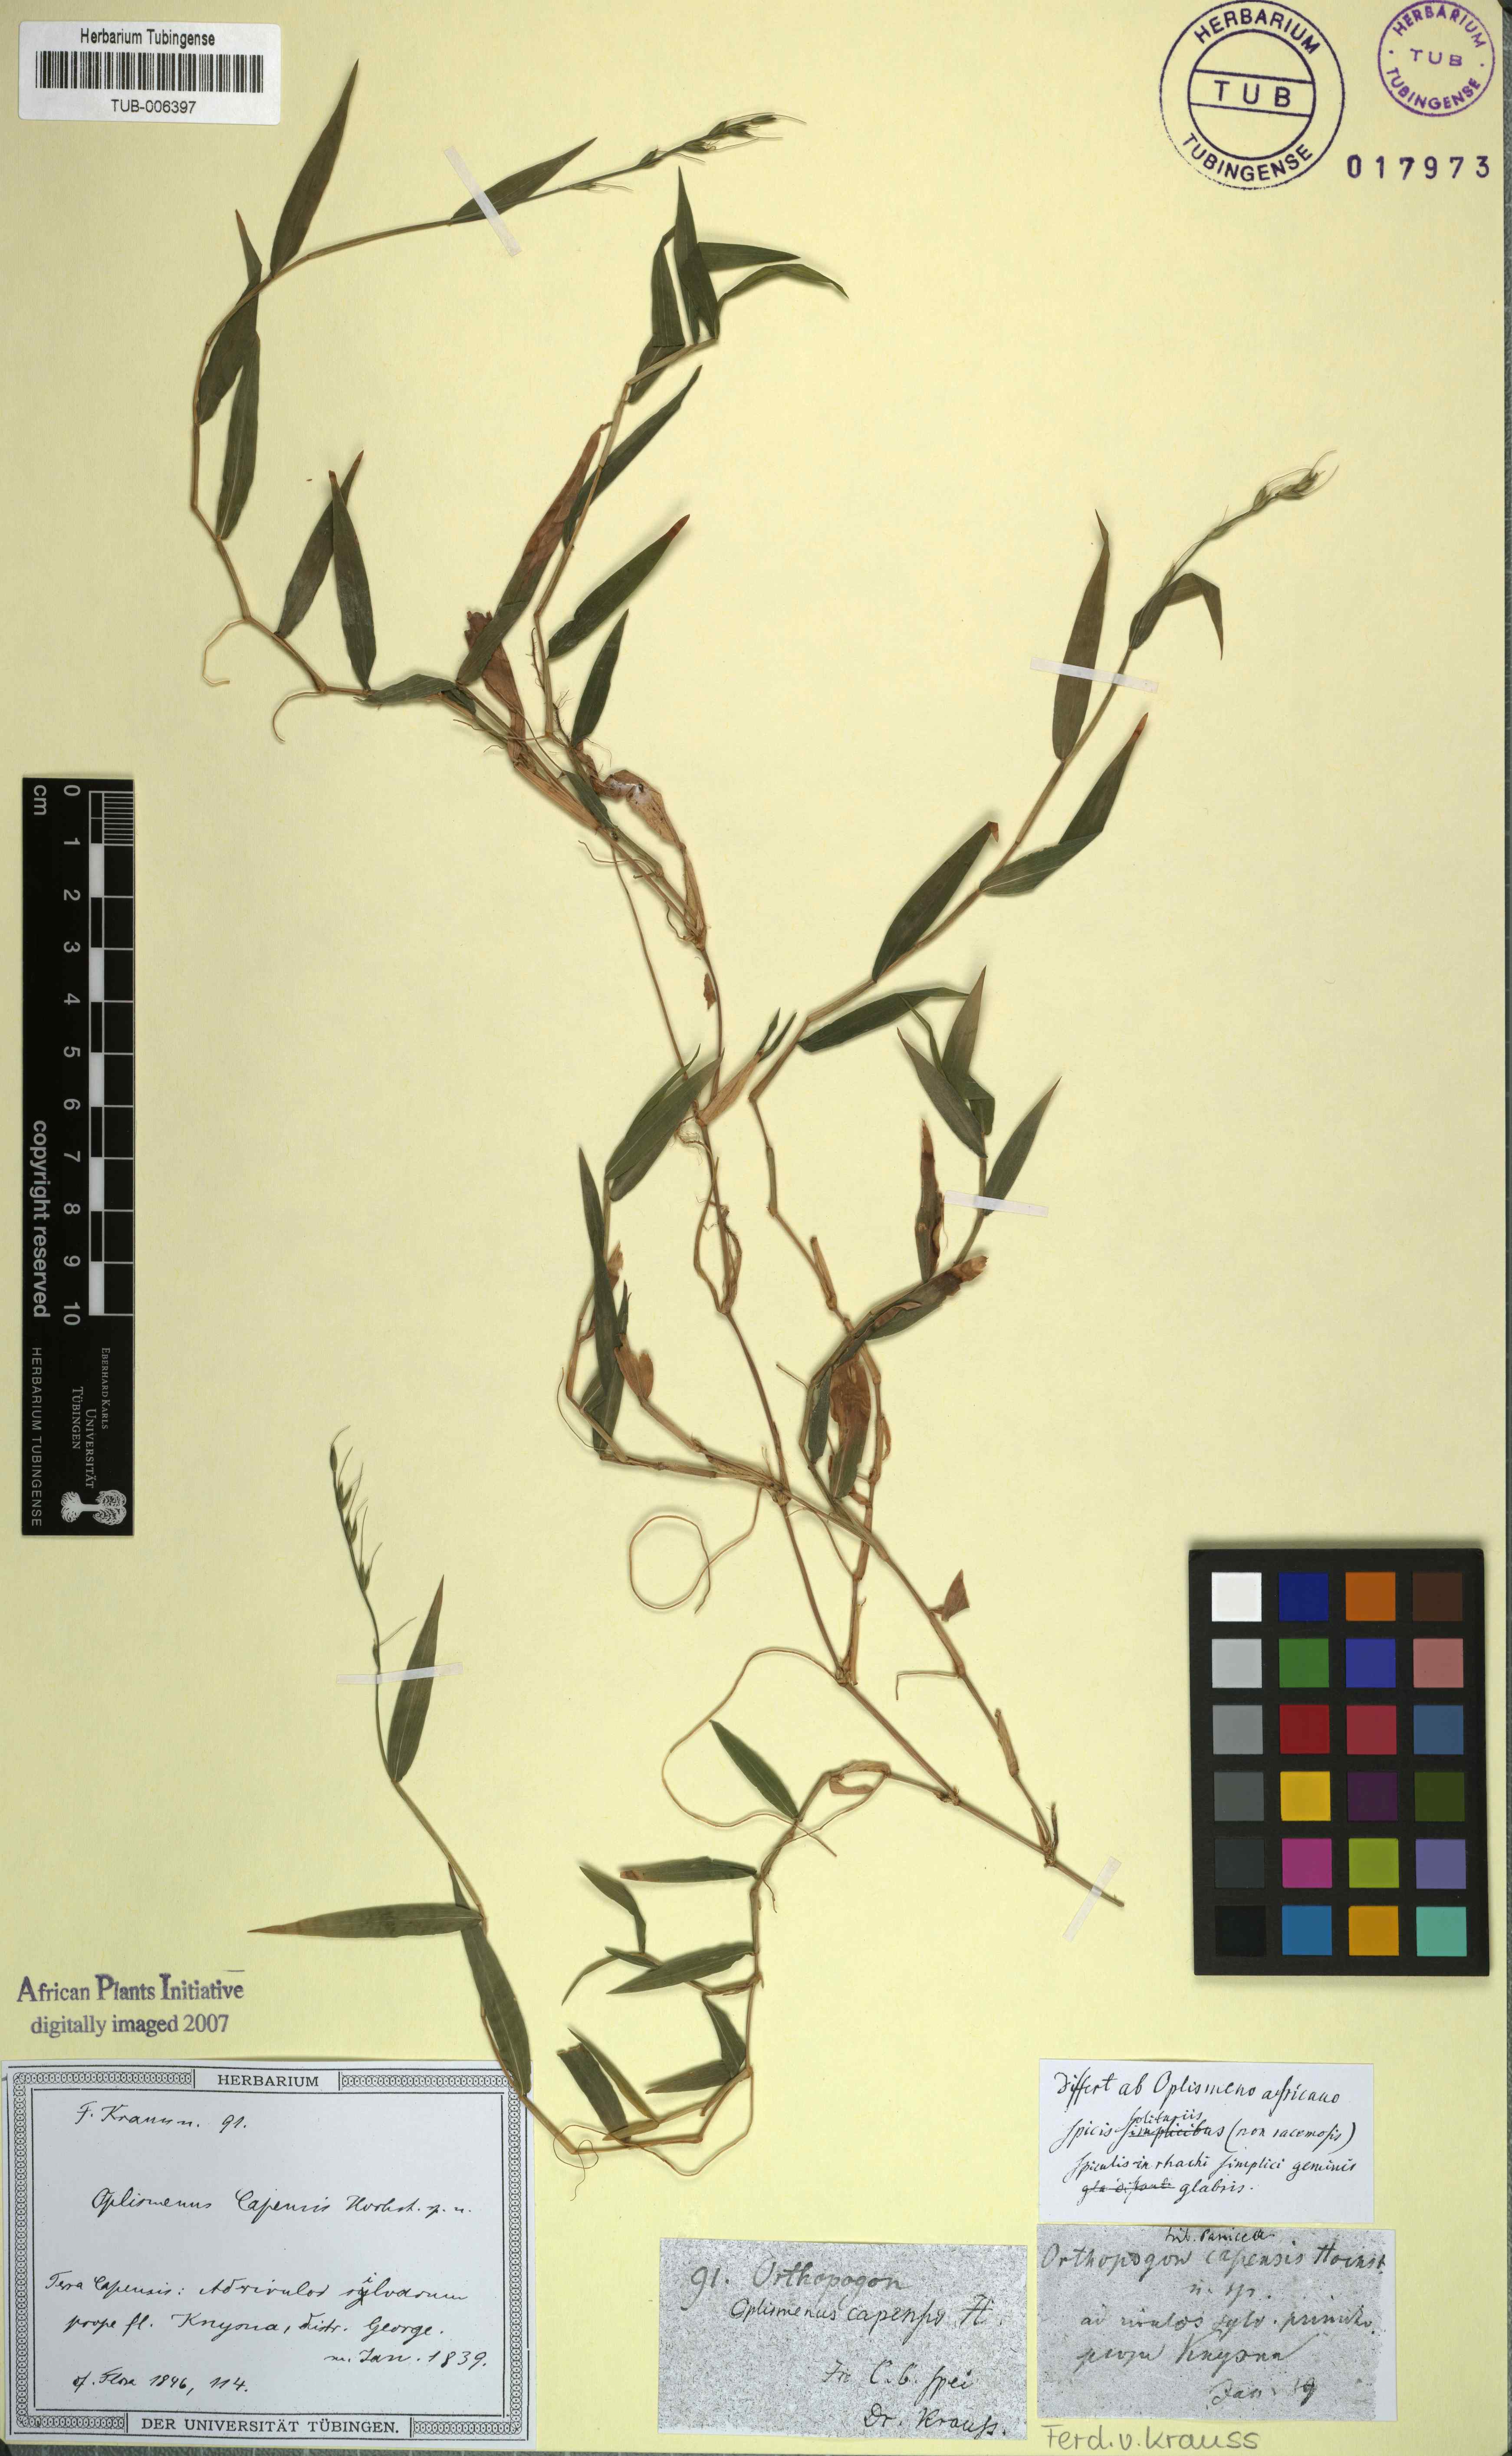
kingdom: Plantae
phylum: Tracheophyta
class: Liliopsida
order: Poales
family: Poaceae
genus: Oplismenus
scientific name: Oplismenus undulatifolius
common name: Wavyleaf basketgrass
